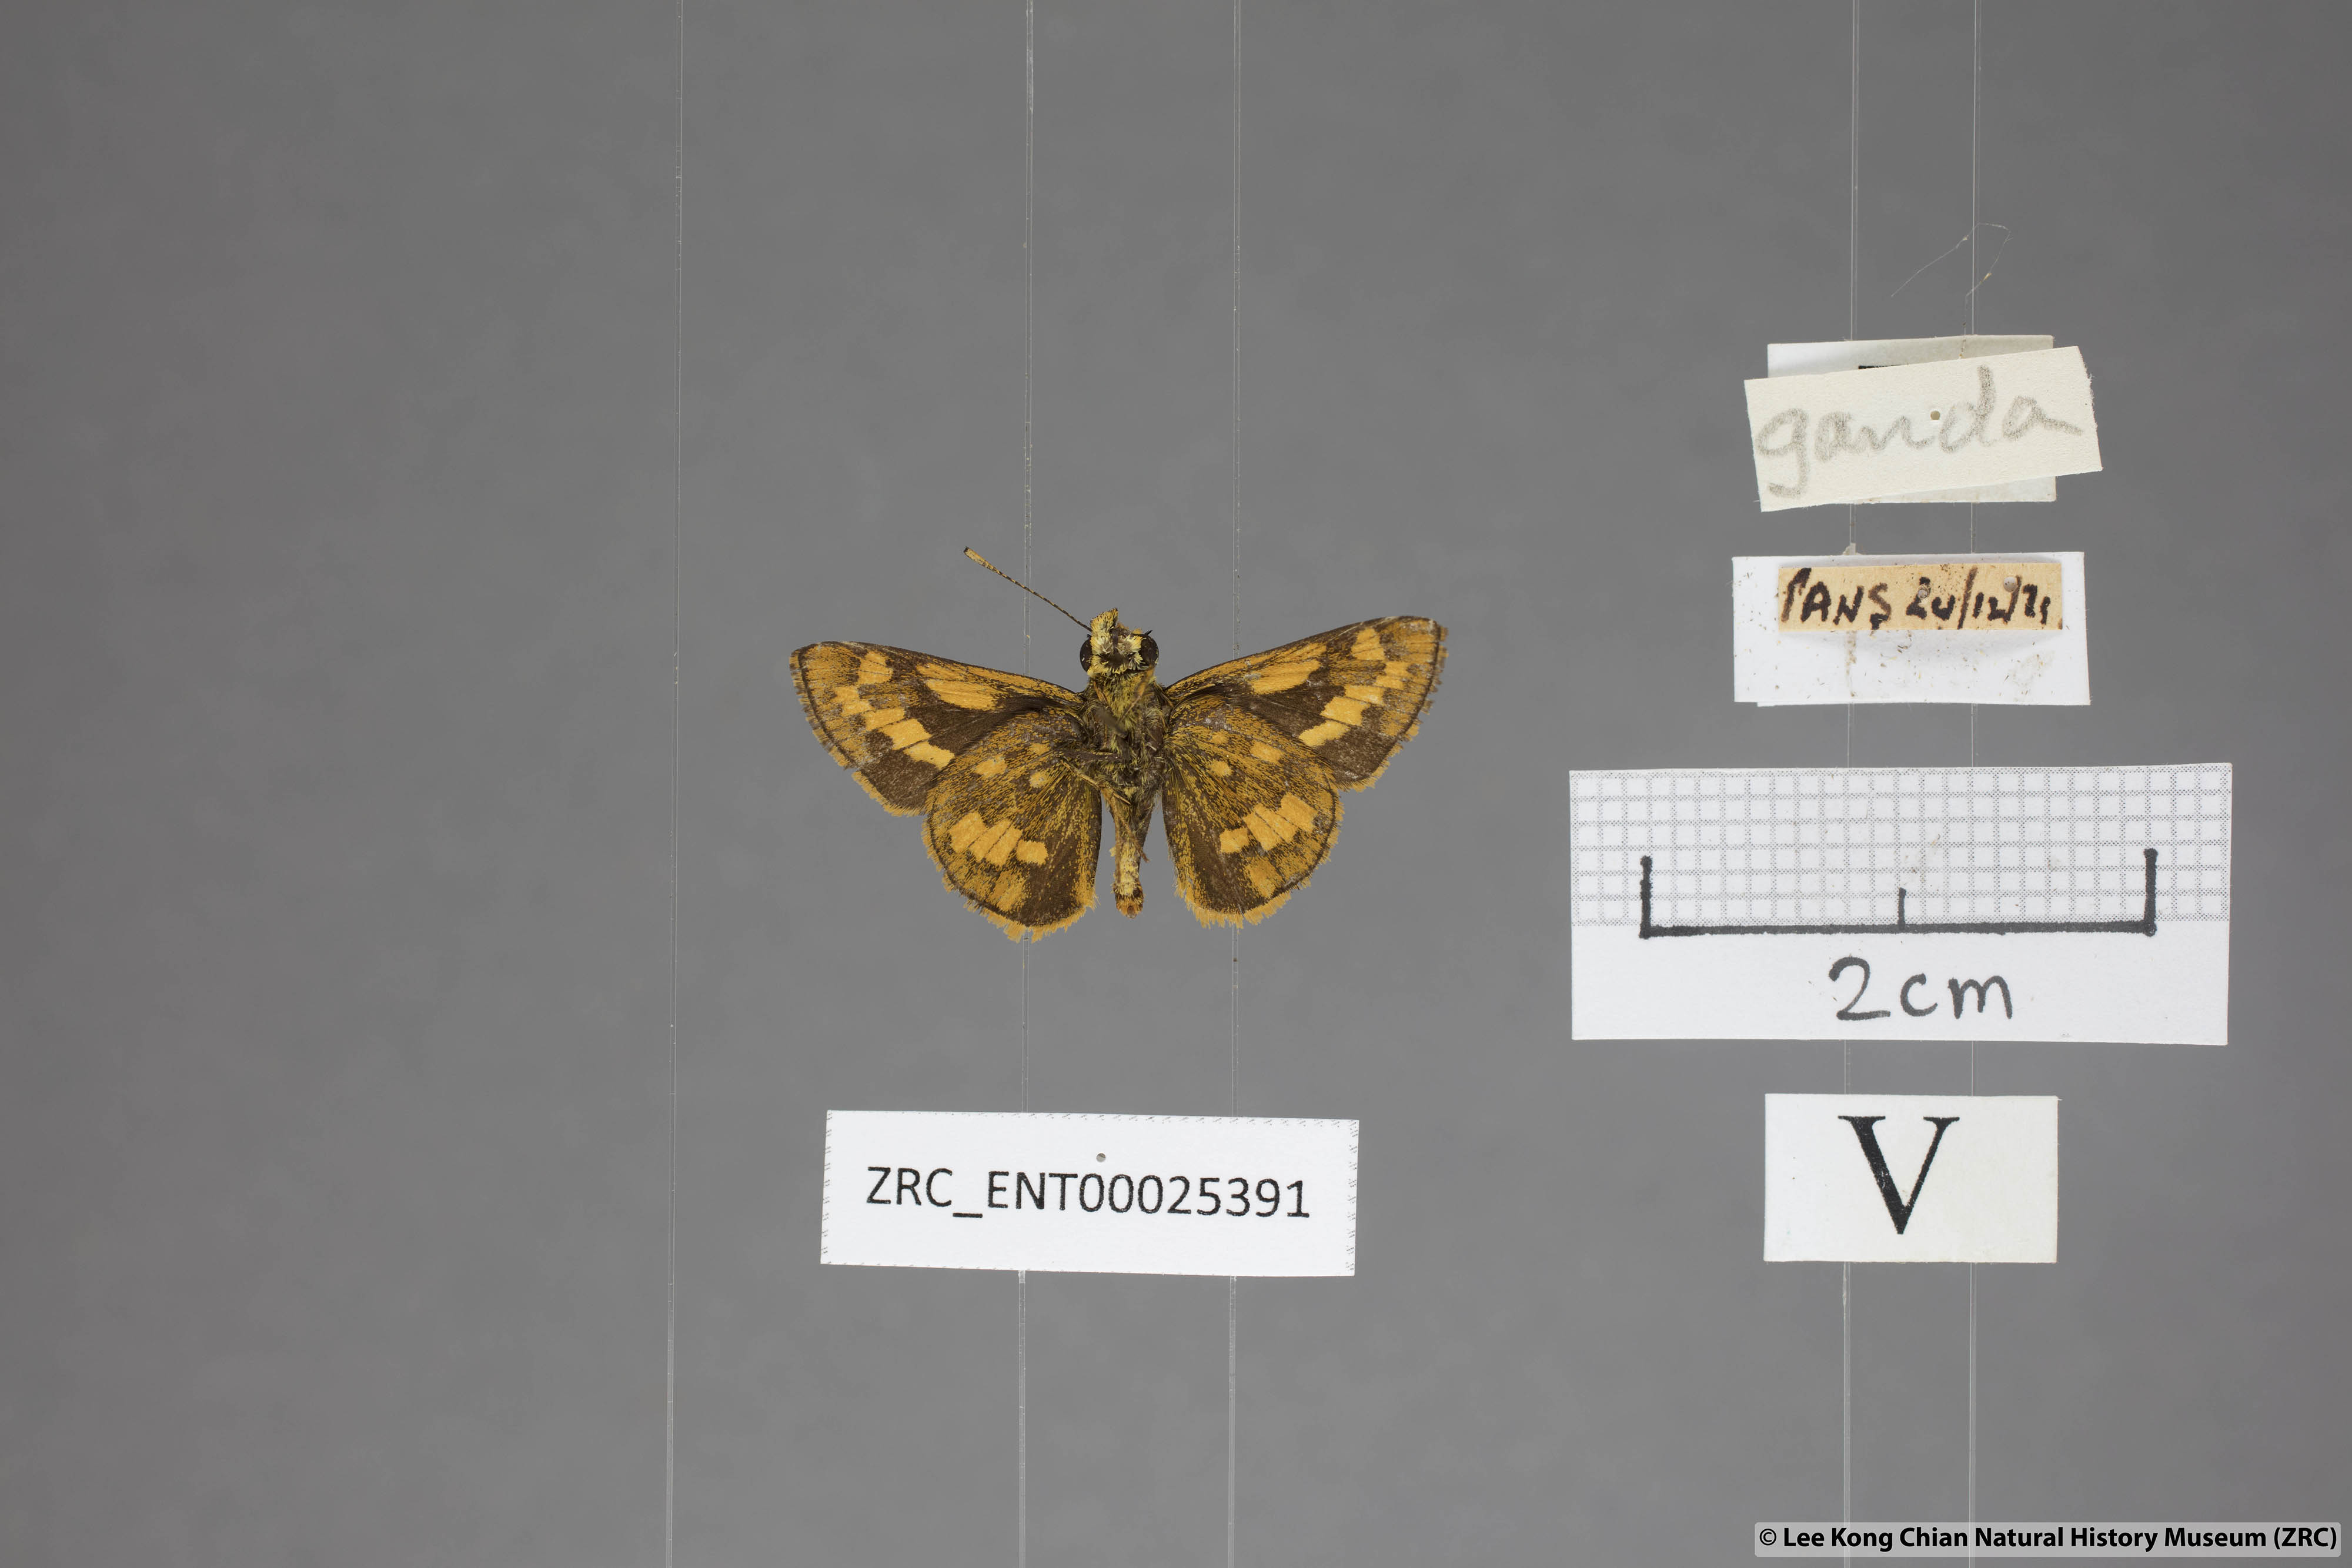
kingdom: Animalia
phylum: Arthropoda
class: Insecta
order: Lepidoptera
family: Hesperiidae
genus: Potanthus
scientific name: Potanthus ganda
